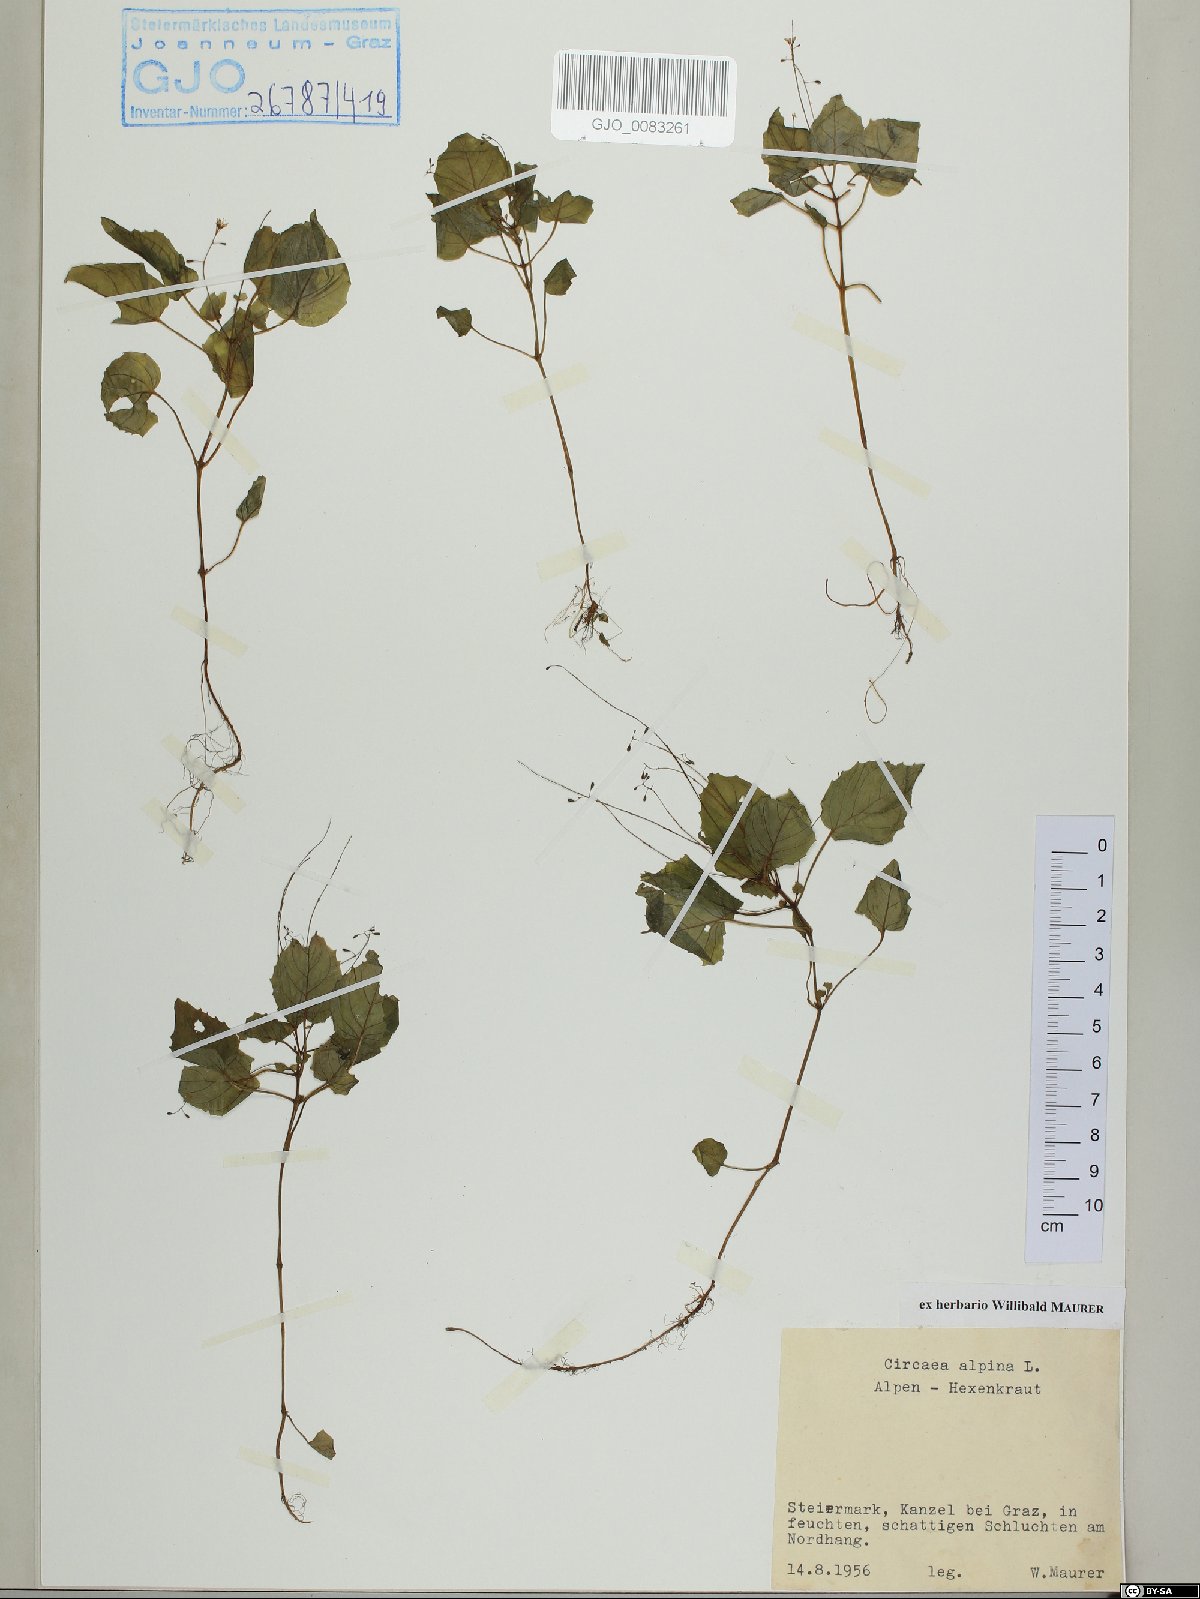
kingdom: Plantae
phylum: Tracheophyta
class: Magnoliopsida
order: Myrtales
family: Onagraceae
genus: Circaea
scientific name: Circaea alpina
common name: Alpine enchanter's-nightshade
